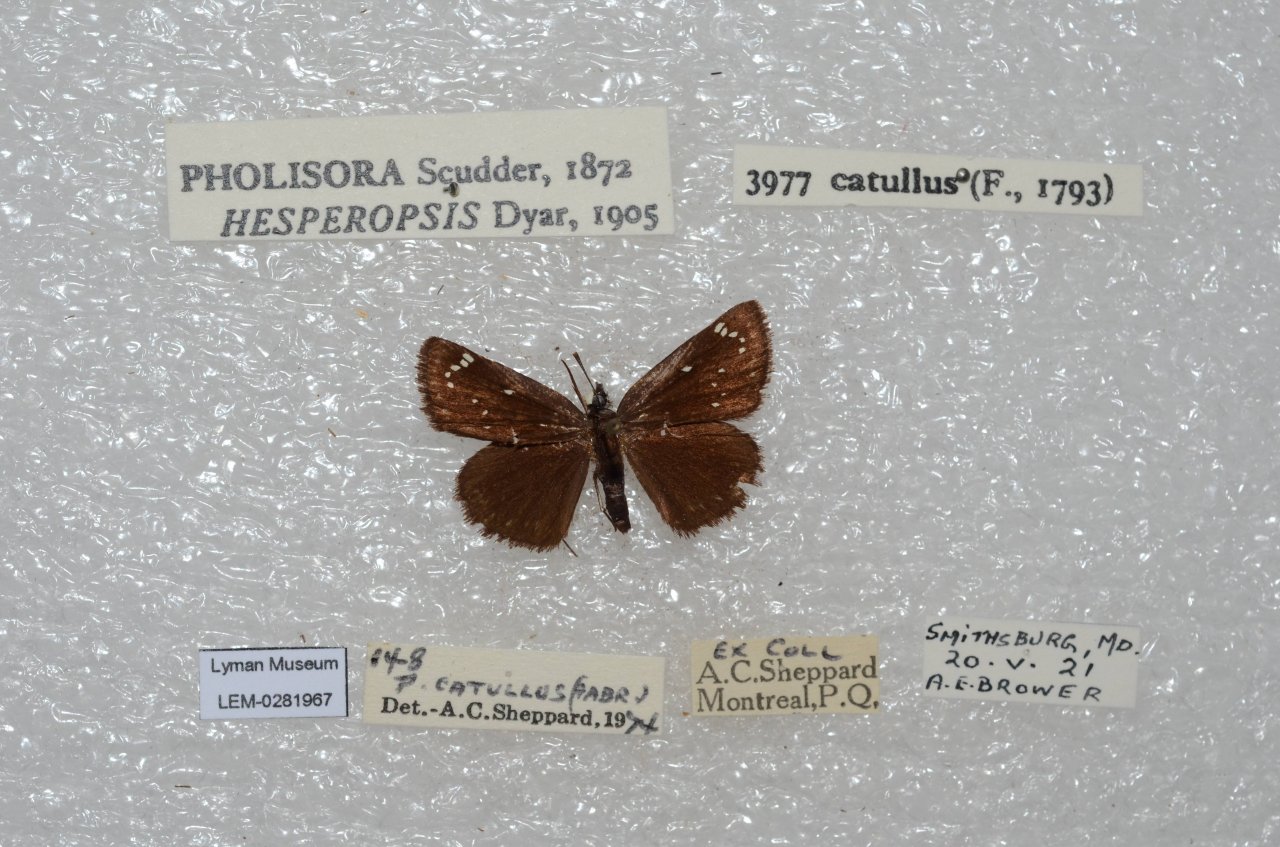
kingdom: Animalia
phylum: Arthropoda
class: Insecta
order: Lepidoptera
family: Hesperiidae
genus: Pholisora
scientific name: Pholisora catullus
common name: Common Sootywing
